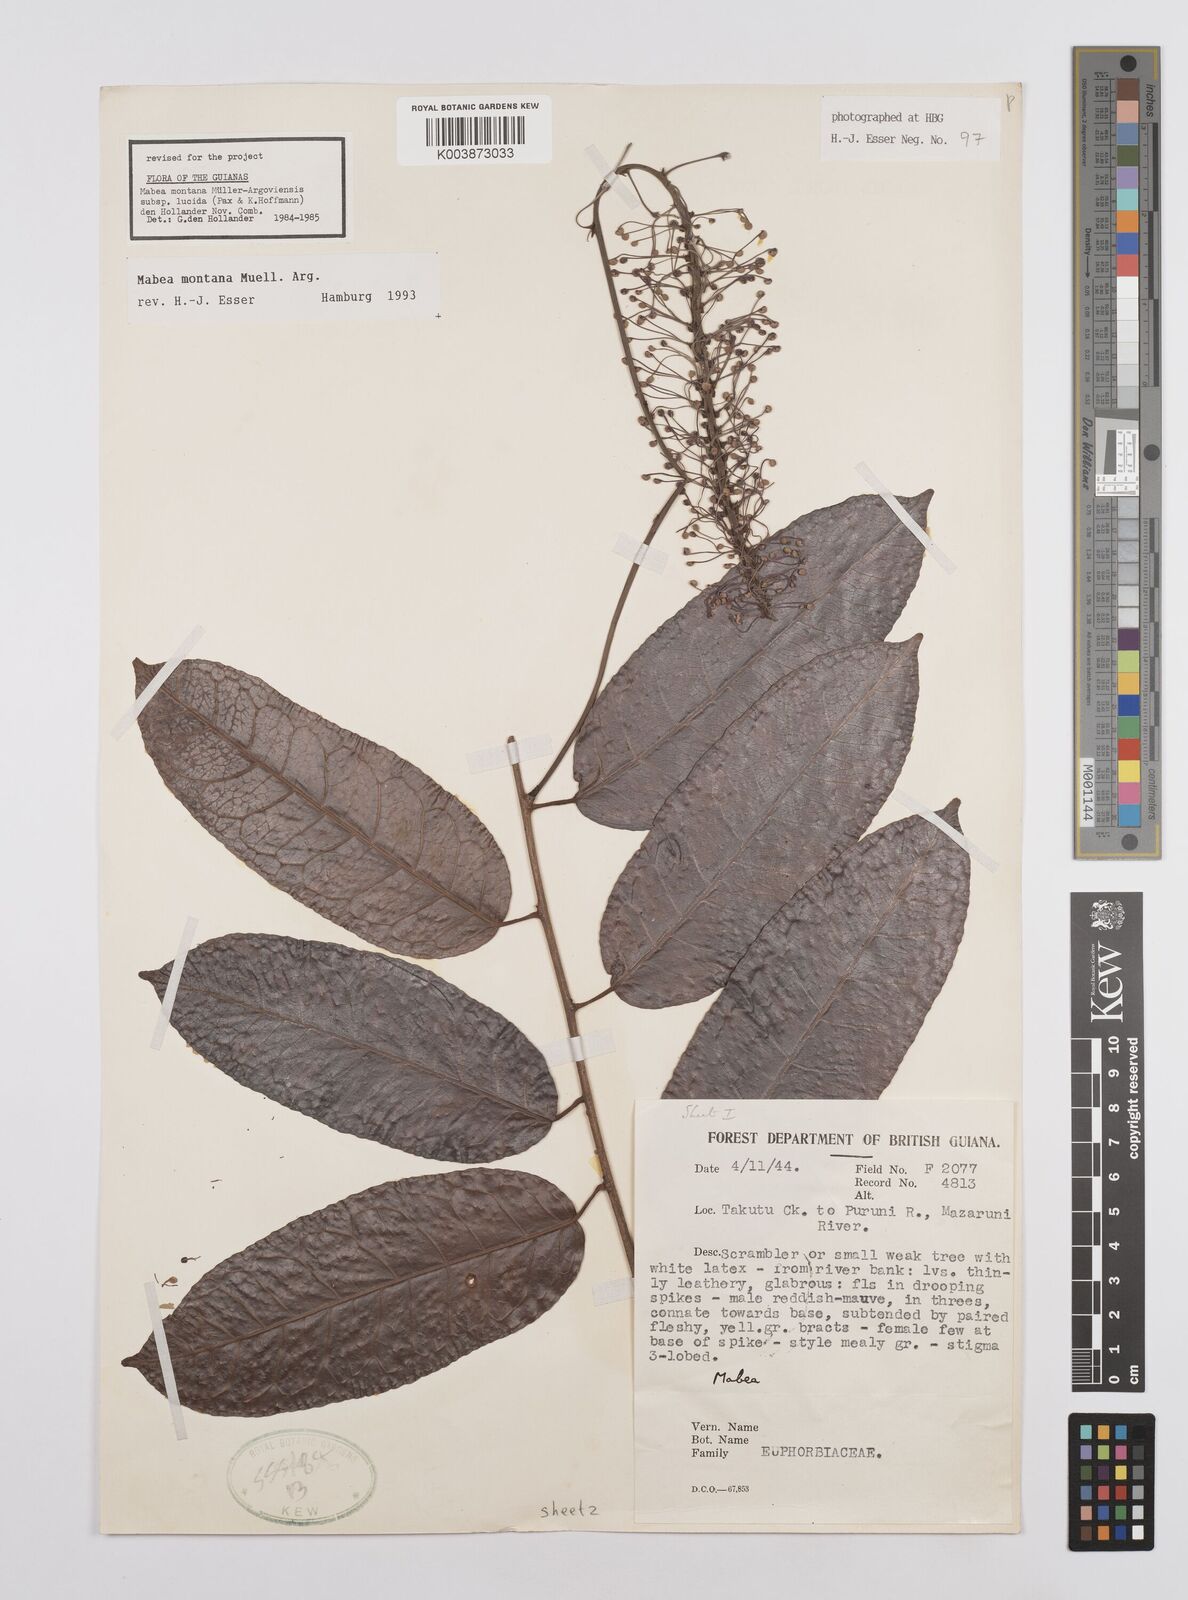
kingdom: Plantae
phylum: Tracheophyta
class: Magnoliopsida
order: Malpighiales
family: Euphorbiaceae
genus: Mabea
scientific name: Mabea montana
